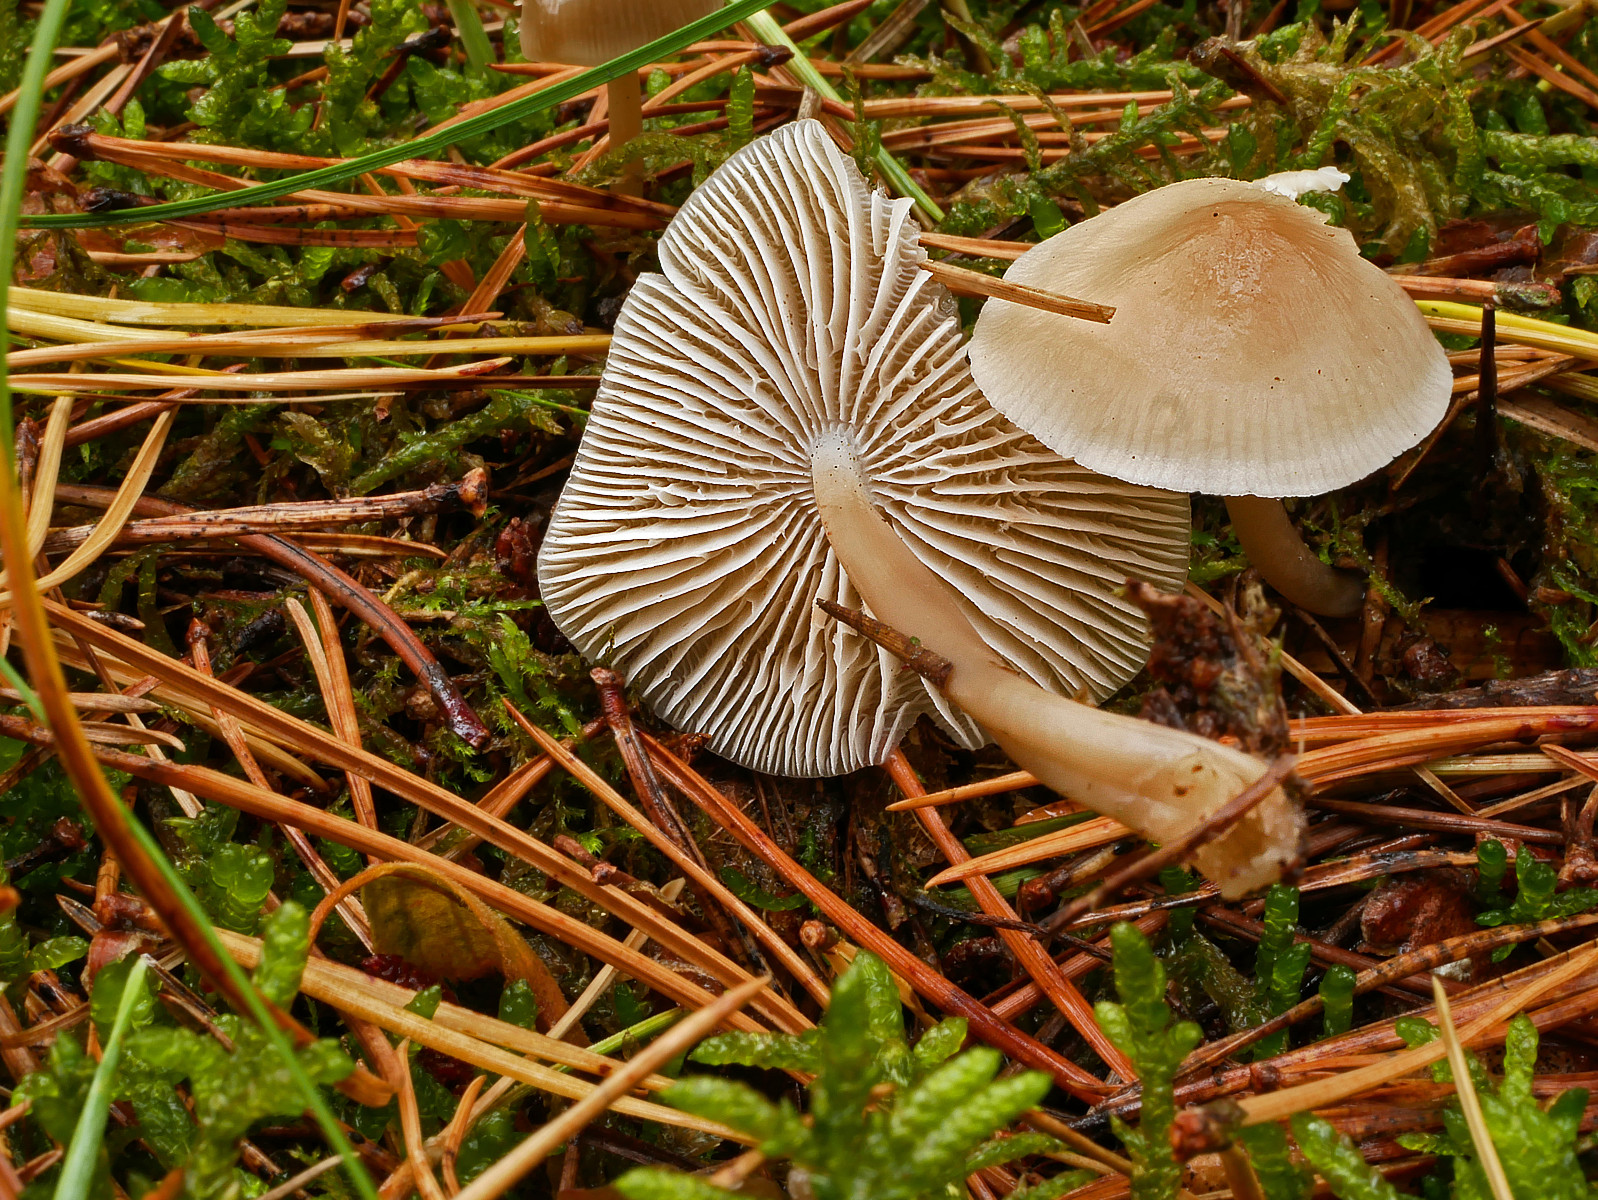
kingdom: Fungi
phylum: Basidiomycota
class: Agaricomycetes
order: Agaricales
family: Mycenaceae
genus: Mycena
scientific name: Mycena galericulata
